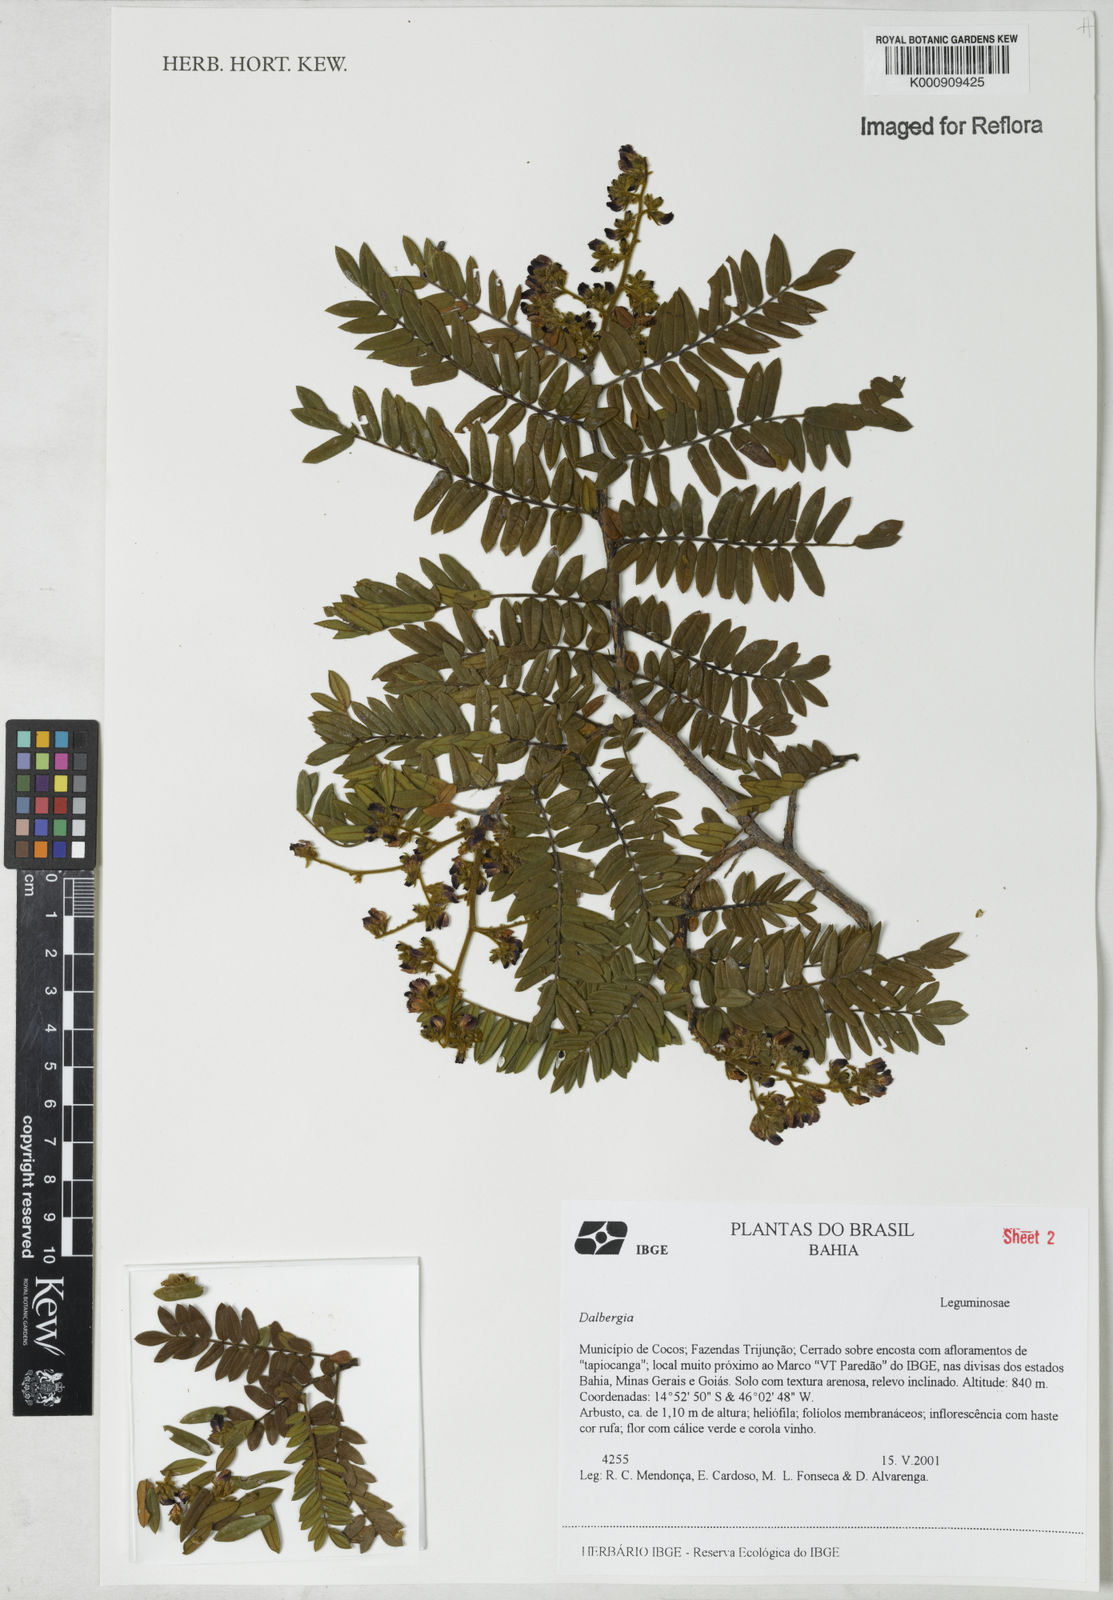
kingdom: Plantae
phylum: Tracheophyta
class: Magnoliopsida
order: Fabales
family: Fabaceae
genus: Dalbergia
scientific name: Dalbergia
